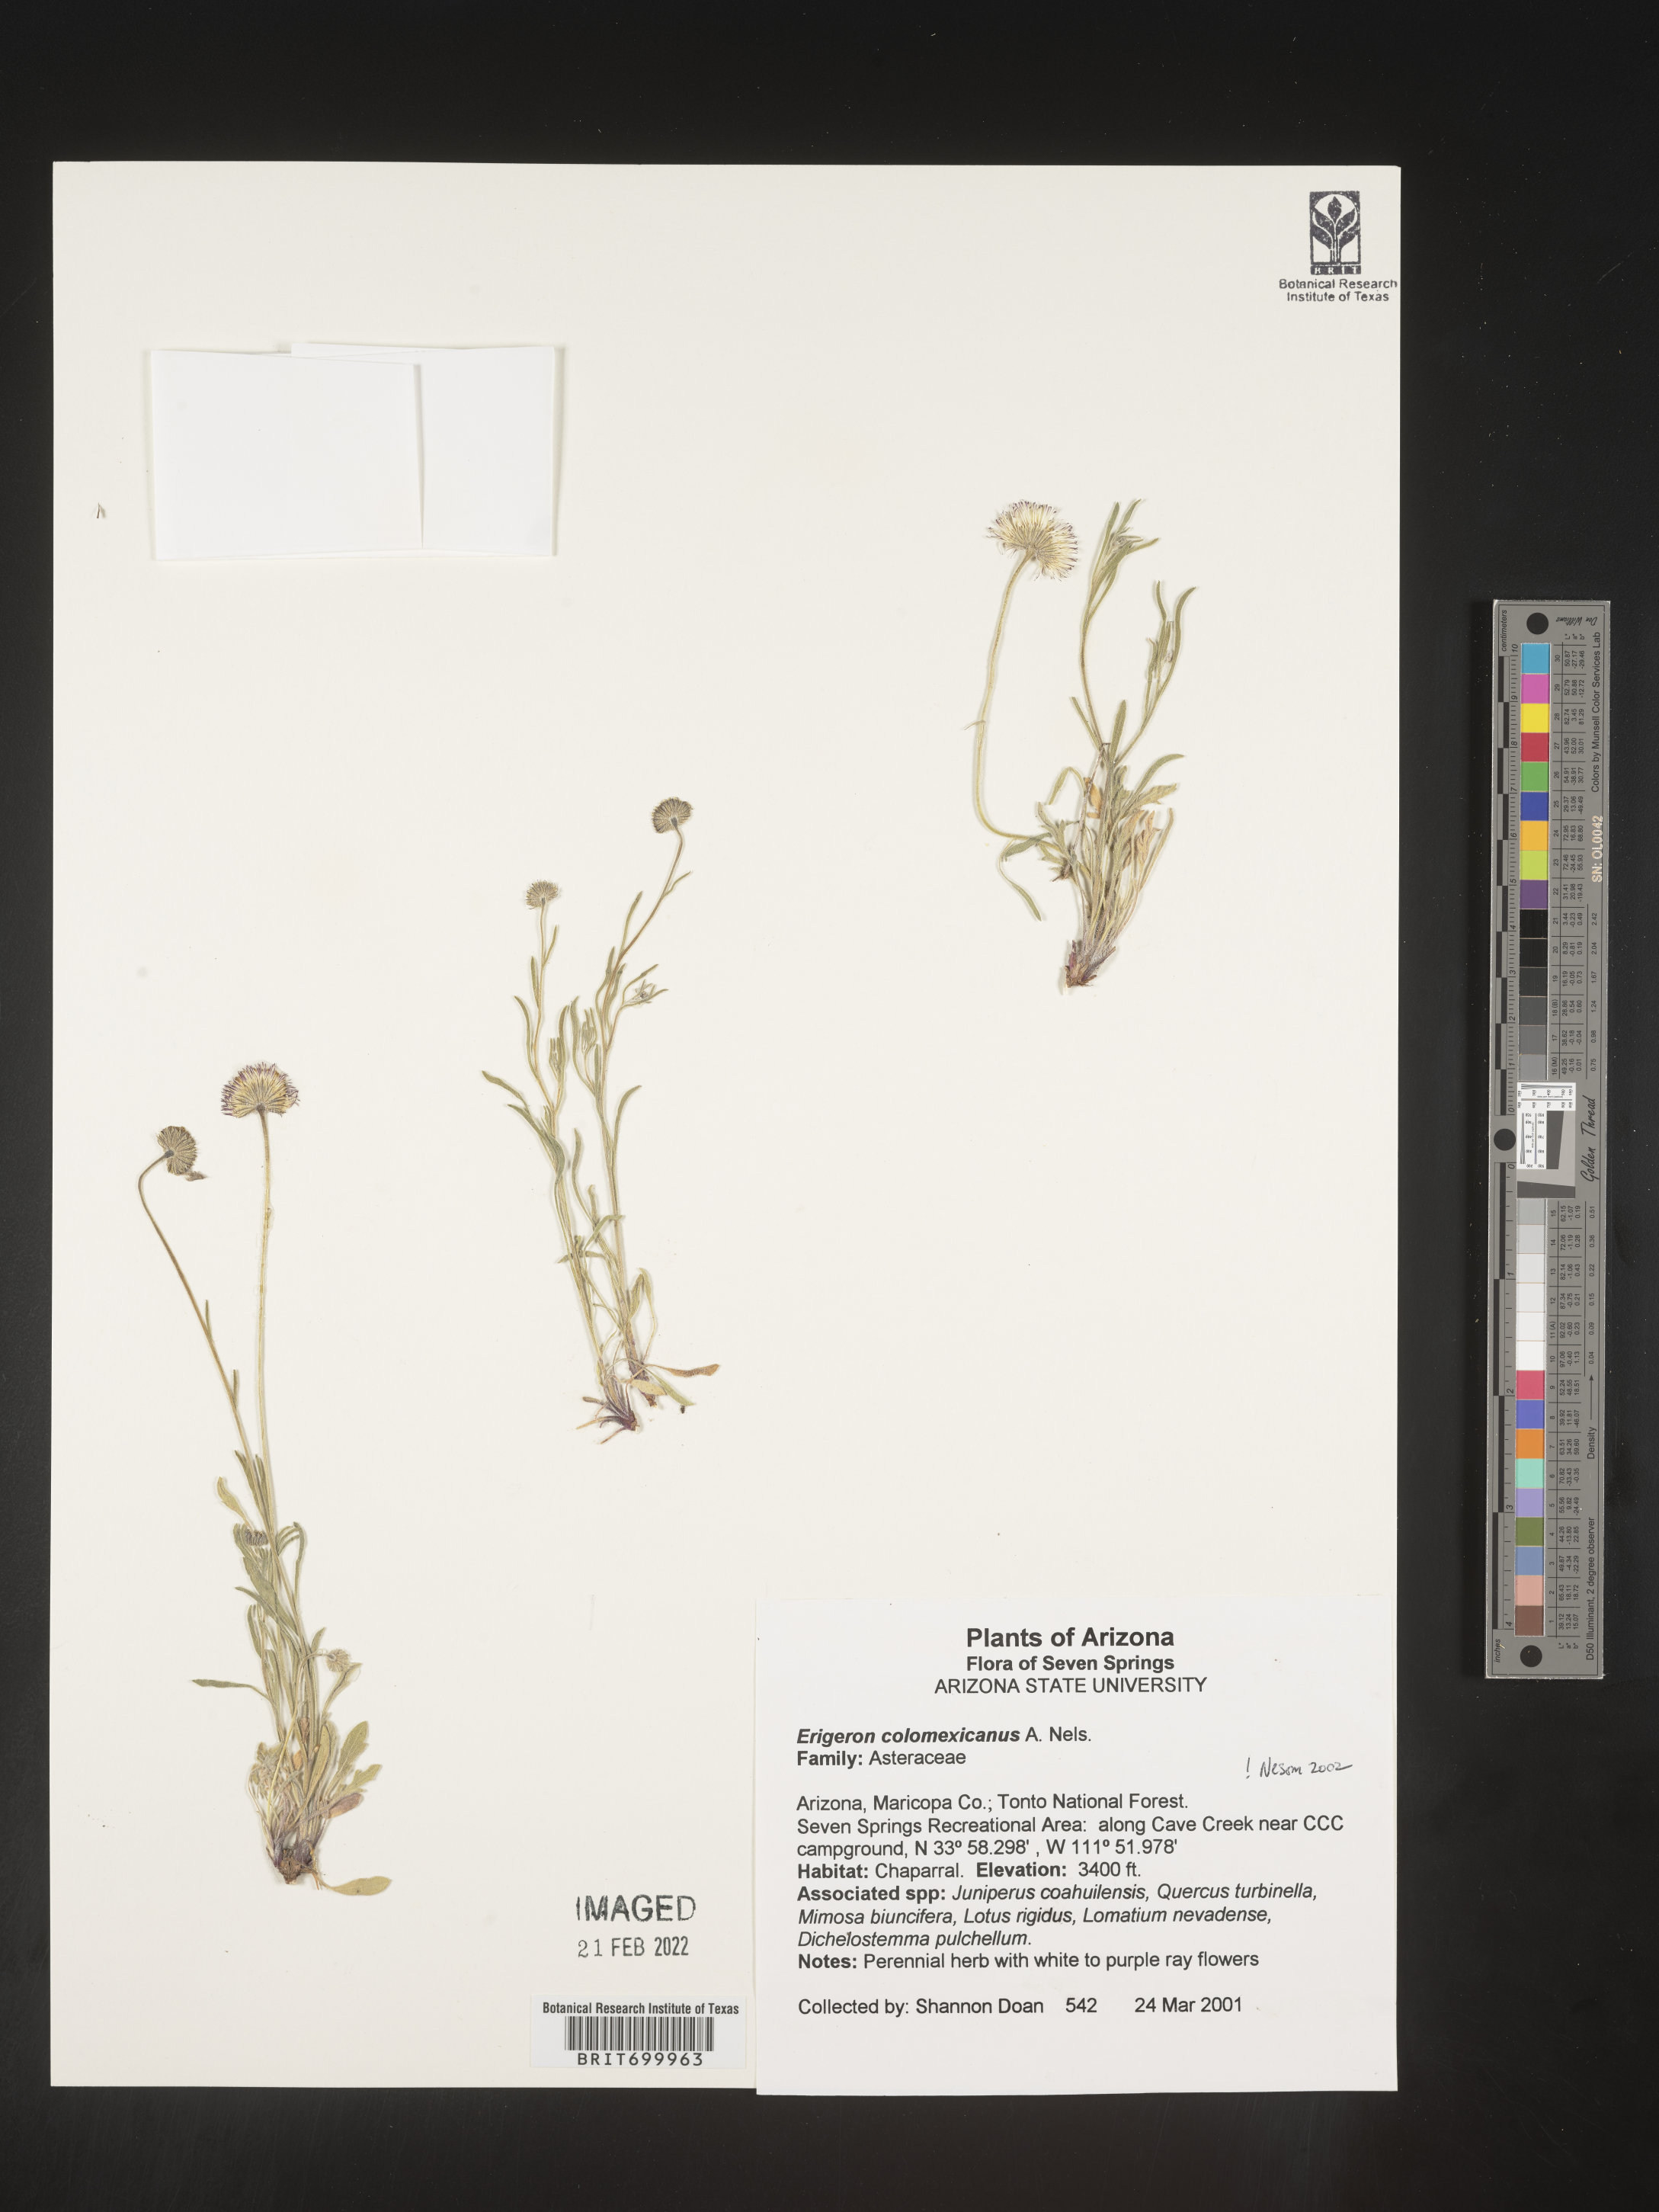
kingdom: Plantae
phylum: Tracheophyta
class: Magnoliopsida
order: Asterales
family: Asteraceae
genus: Erigeron
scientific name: Erigeron tracyi
